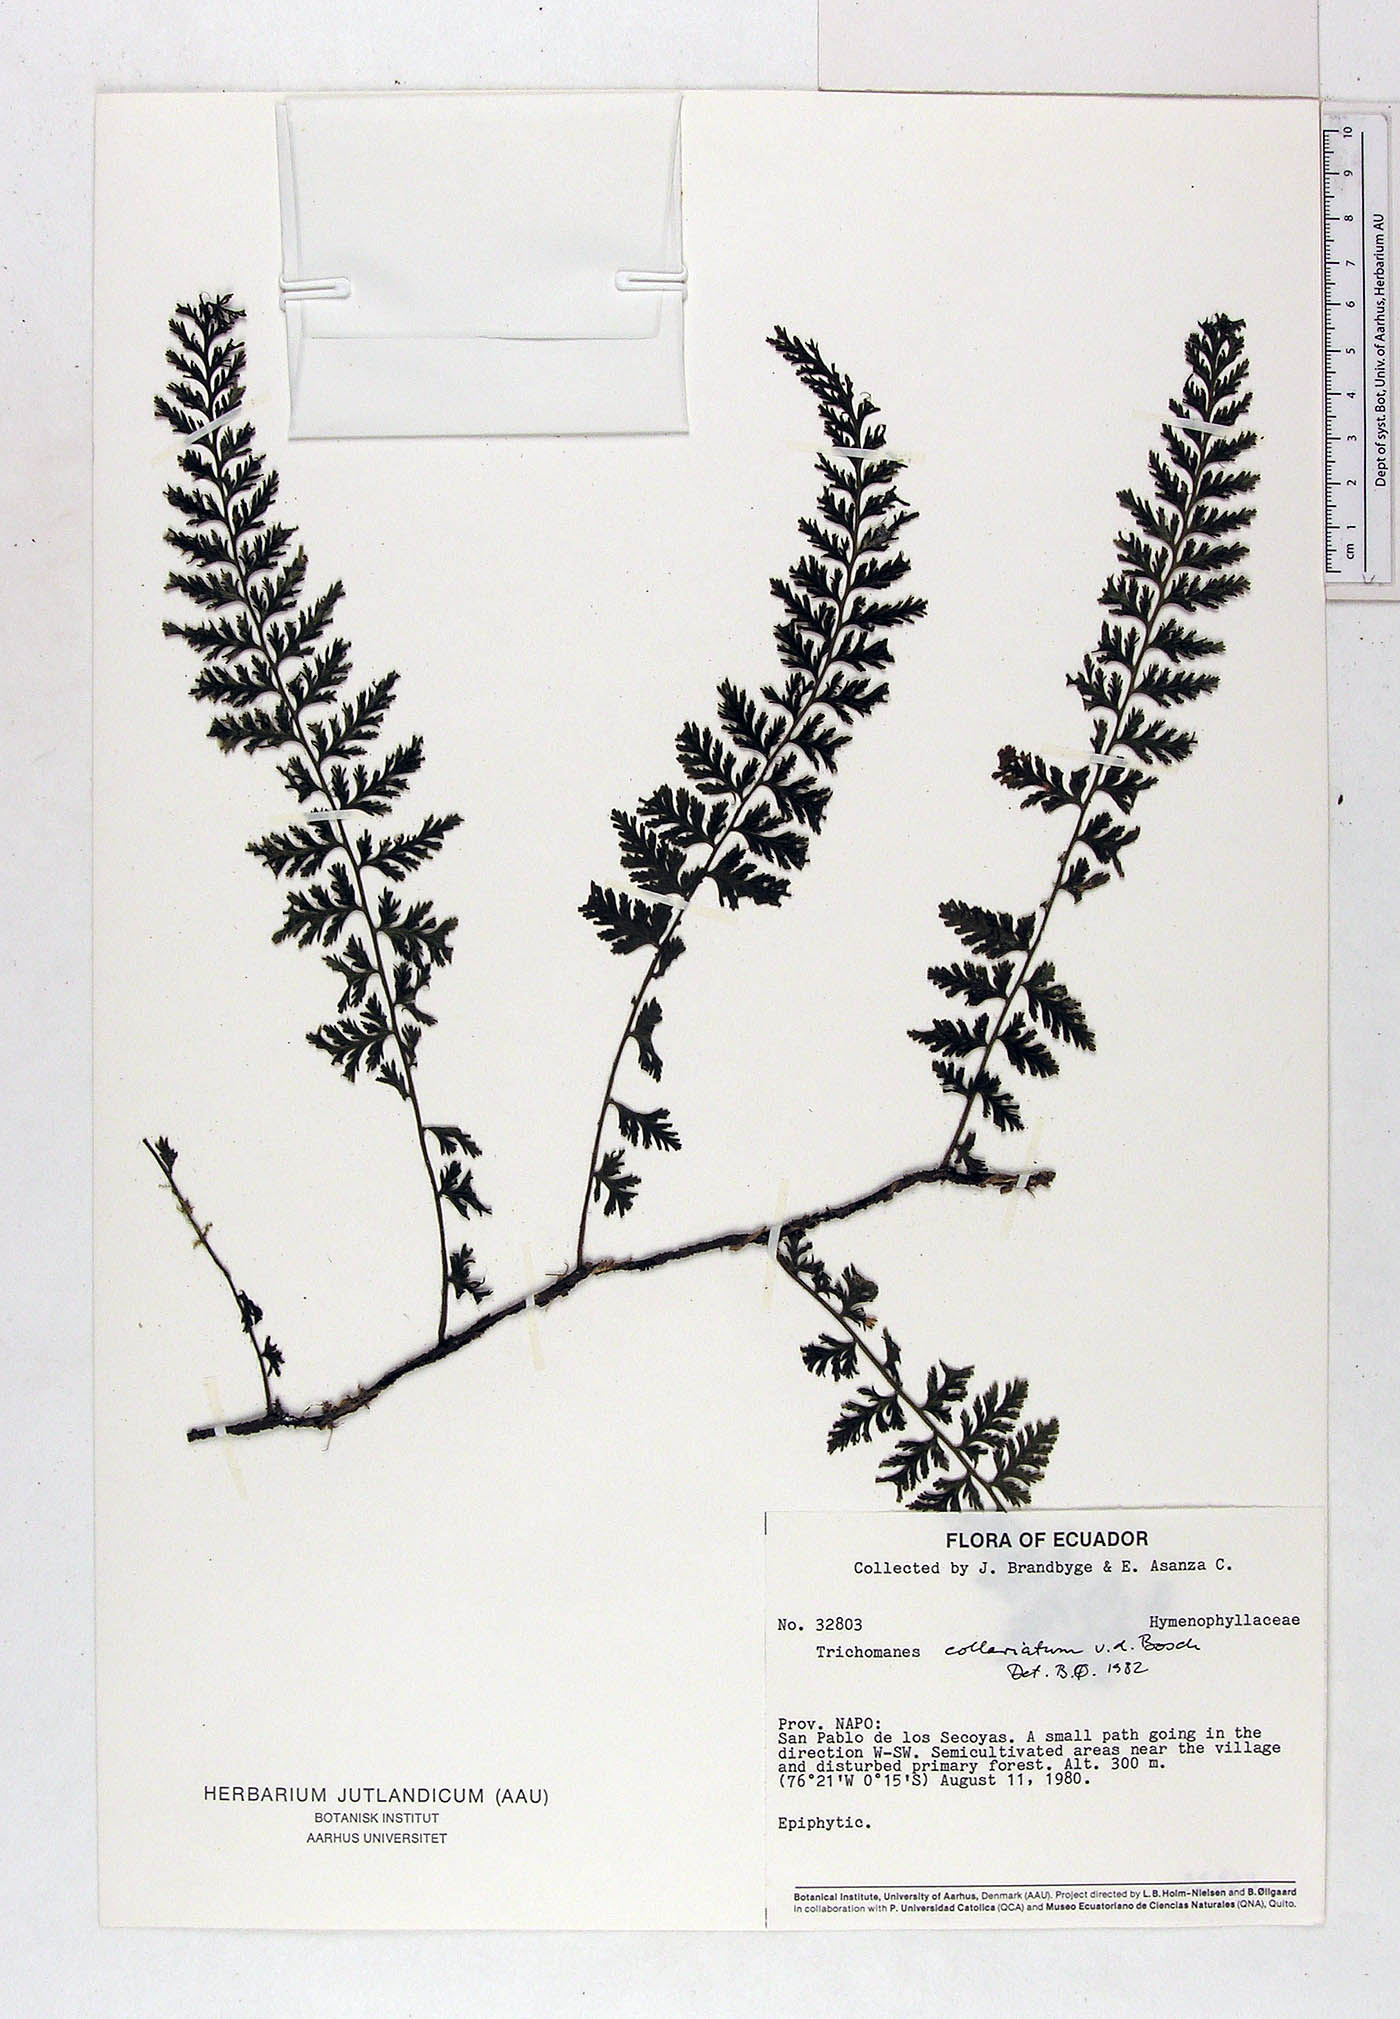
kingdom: Plantae
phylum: Tracheophyta
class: Polypodiopsida
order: Hymenophyllales
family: Hymenophyllaceae
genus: Vandenboschia
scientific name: Vandenboschia collariata
